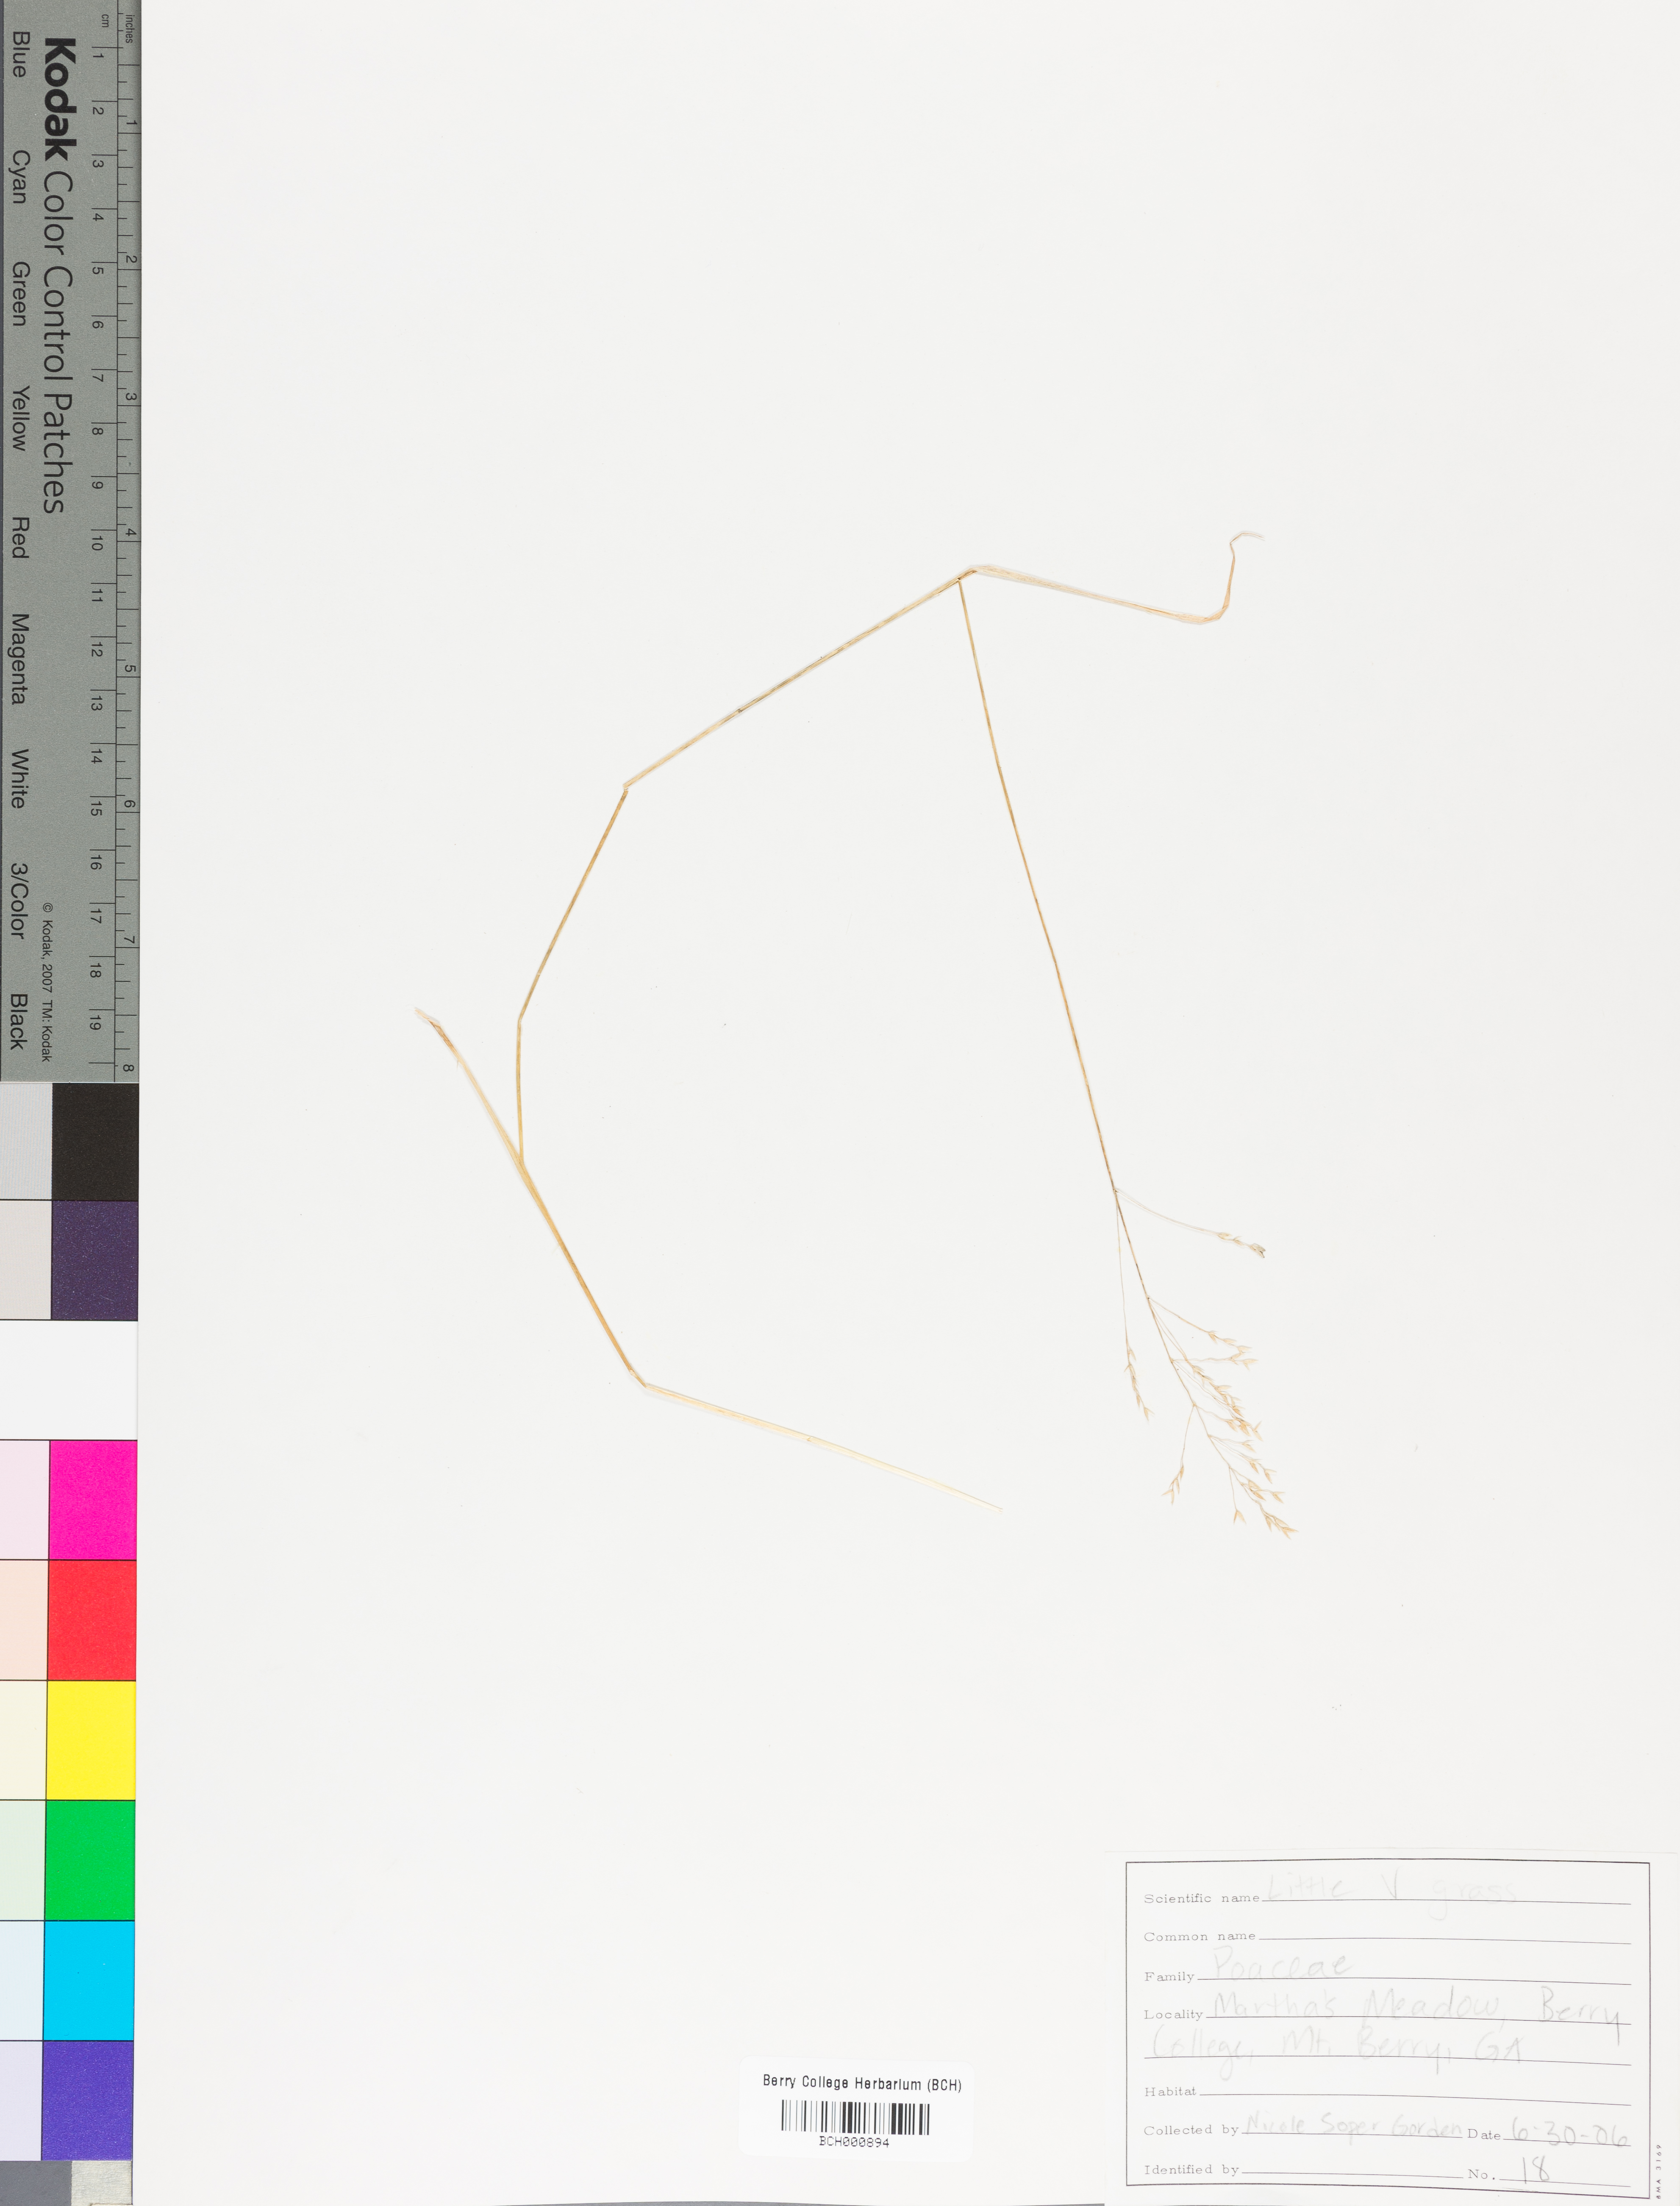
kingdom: Plantae
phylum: Tracheophyta
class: Magnoliopsida
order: Lamiales
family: Acanthaceae
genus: Adhatoda
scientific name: Adhatoda
